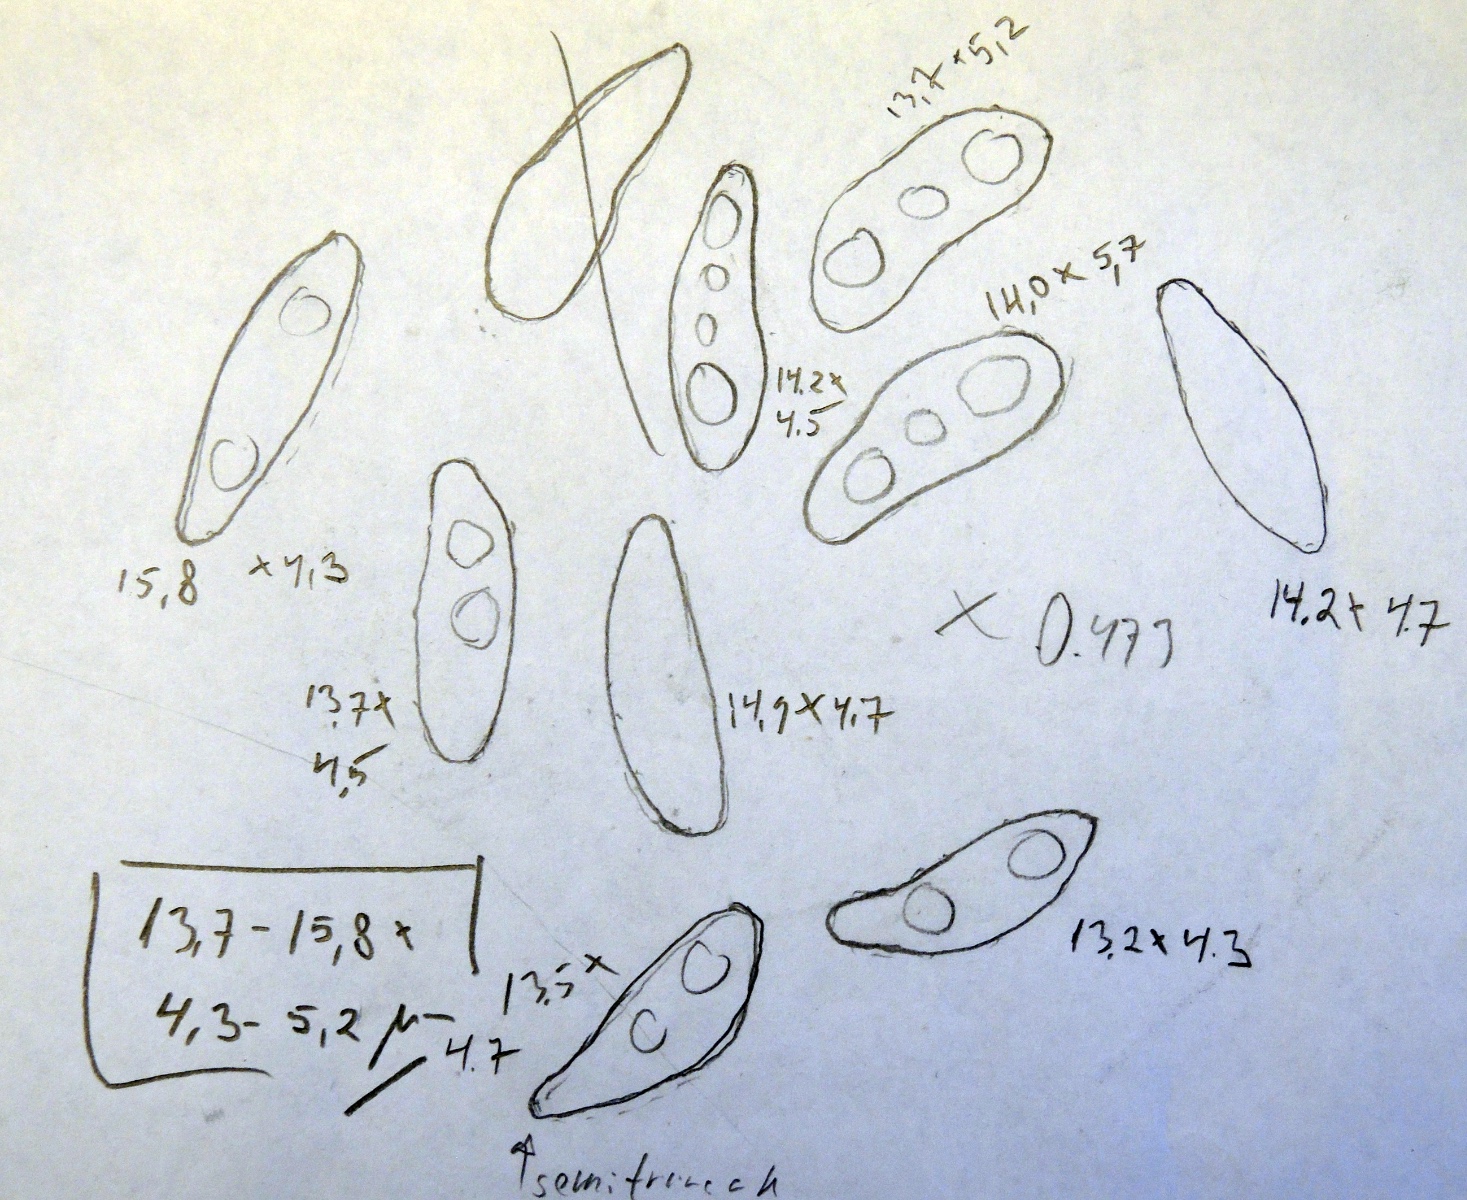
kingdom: Fungi
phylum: Ascomycota
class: Sordariomycetes
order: Xylariales
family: Xylariaceae
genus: Nemania
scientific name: Nemania
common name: kuldyne
